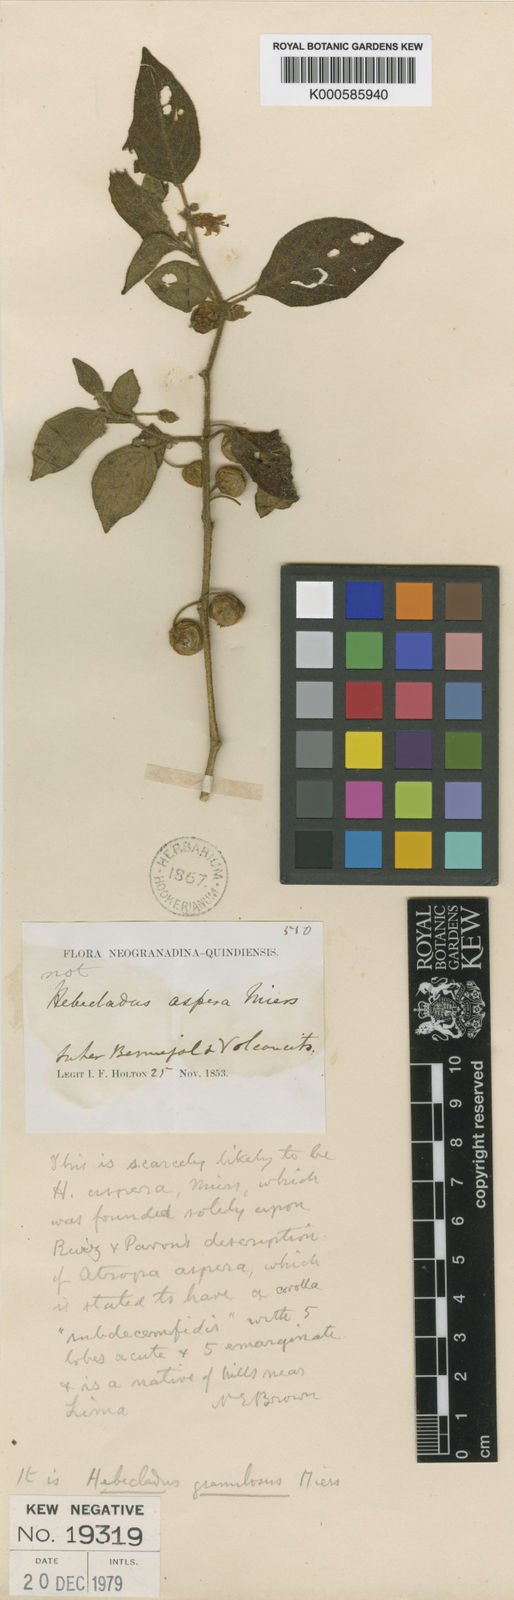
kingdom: Plantae
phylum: Tracheophyta
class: Magnoliopsida
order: Solanales
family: Solanaceae
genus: Deprea
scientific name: Deprea orinocensis
